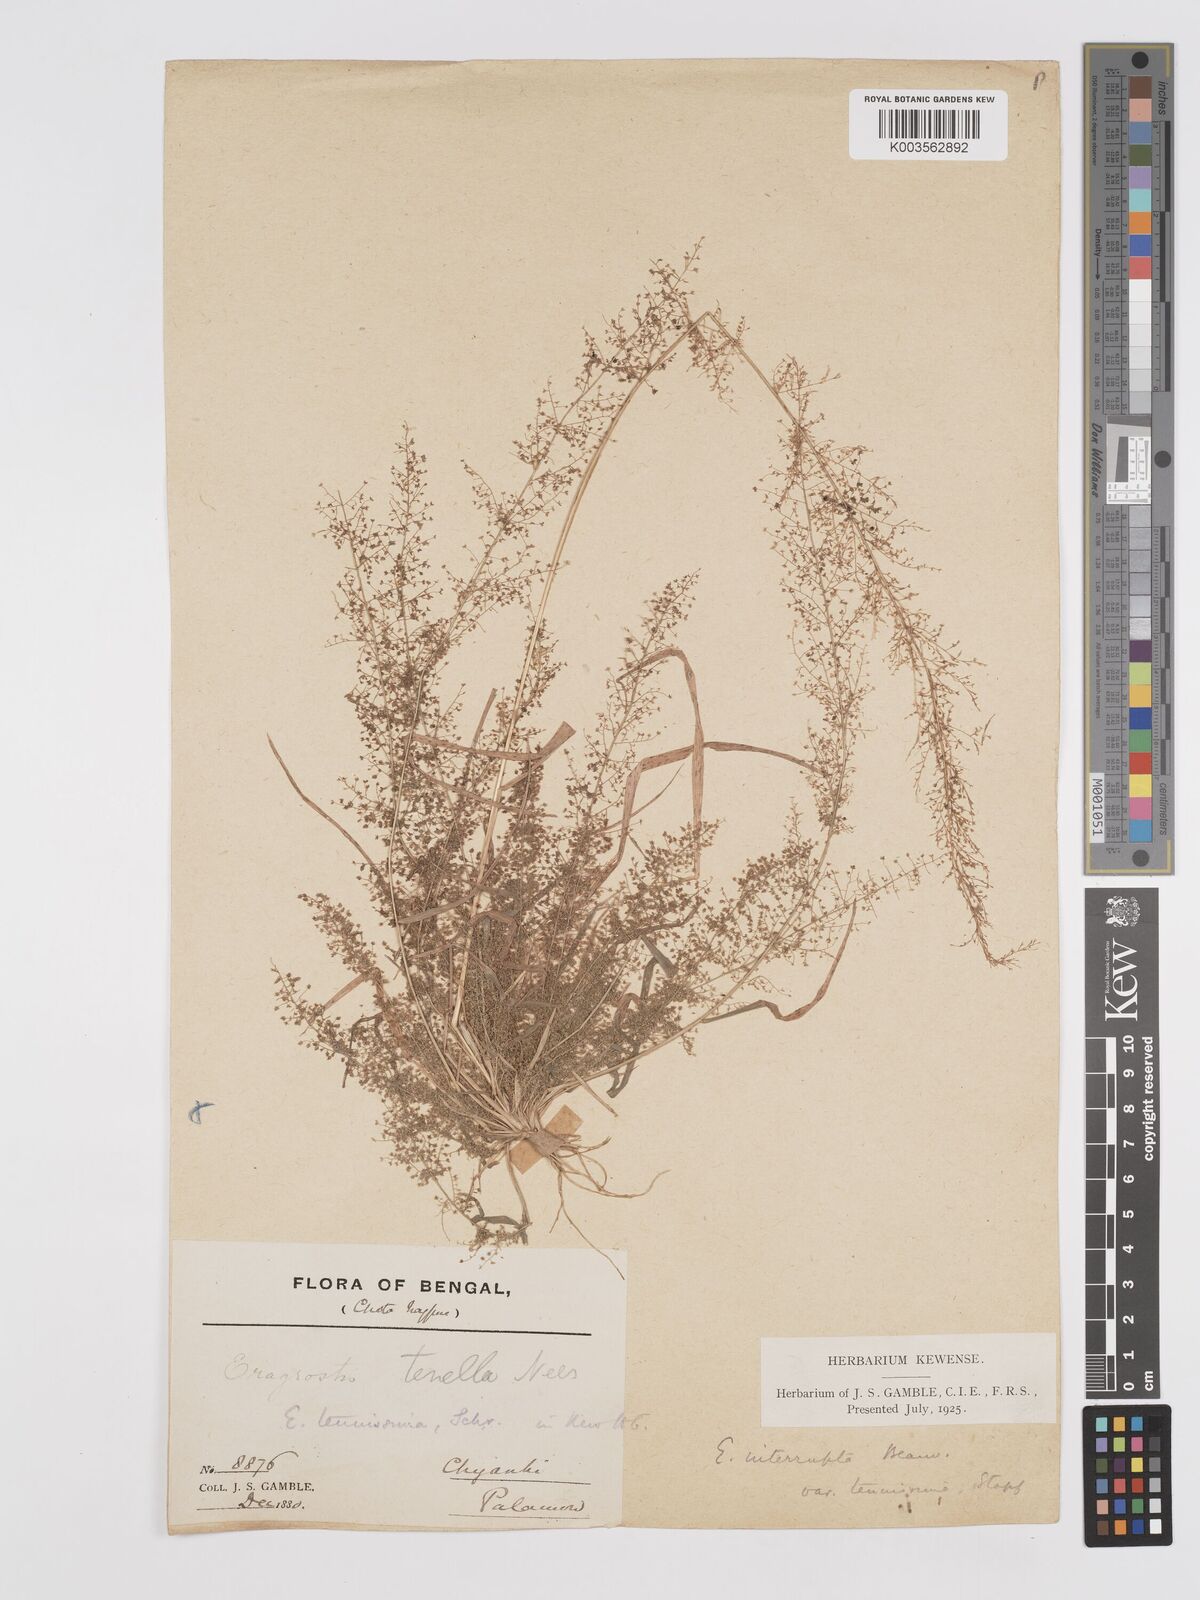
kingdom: Plantae
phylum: Tracheophyta
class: Liliopsida
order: Poales
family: Poaceae
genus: Eragrostis
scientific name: Eragrostis japonica
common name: Pond lovegrass
